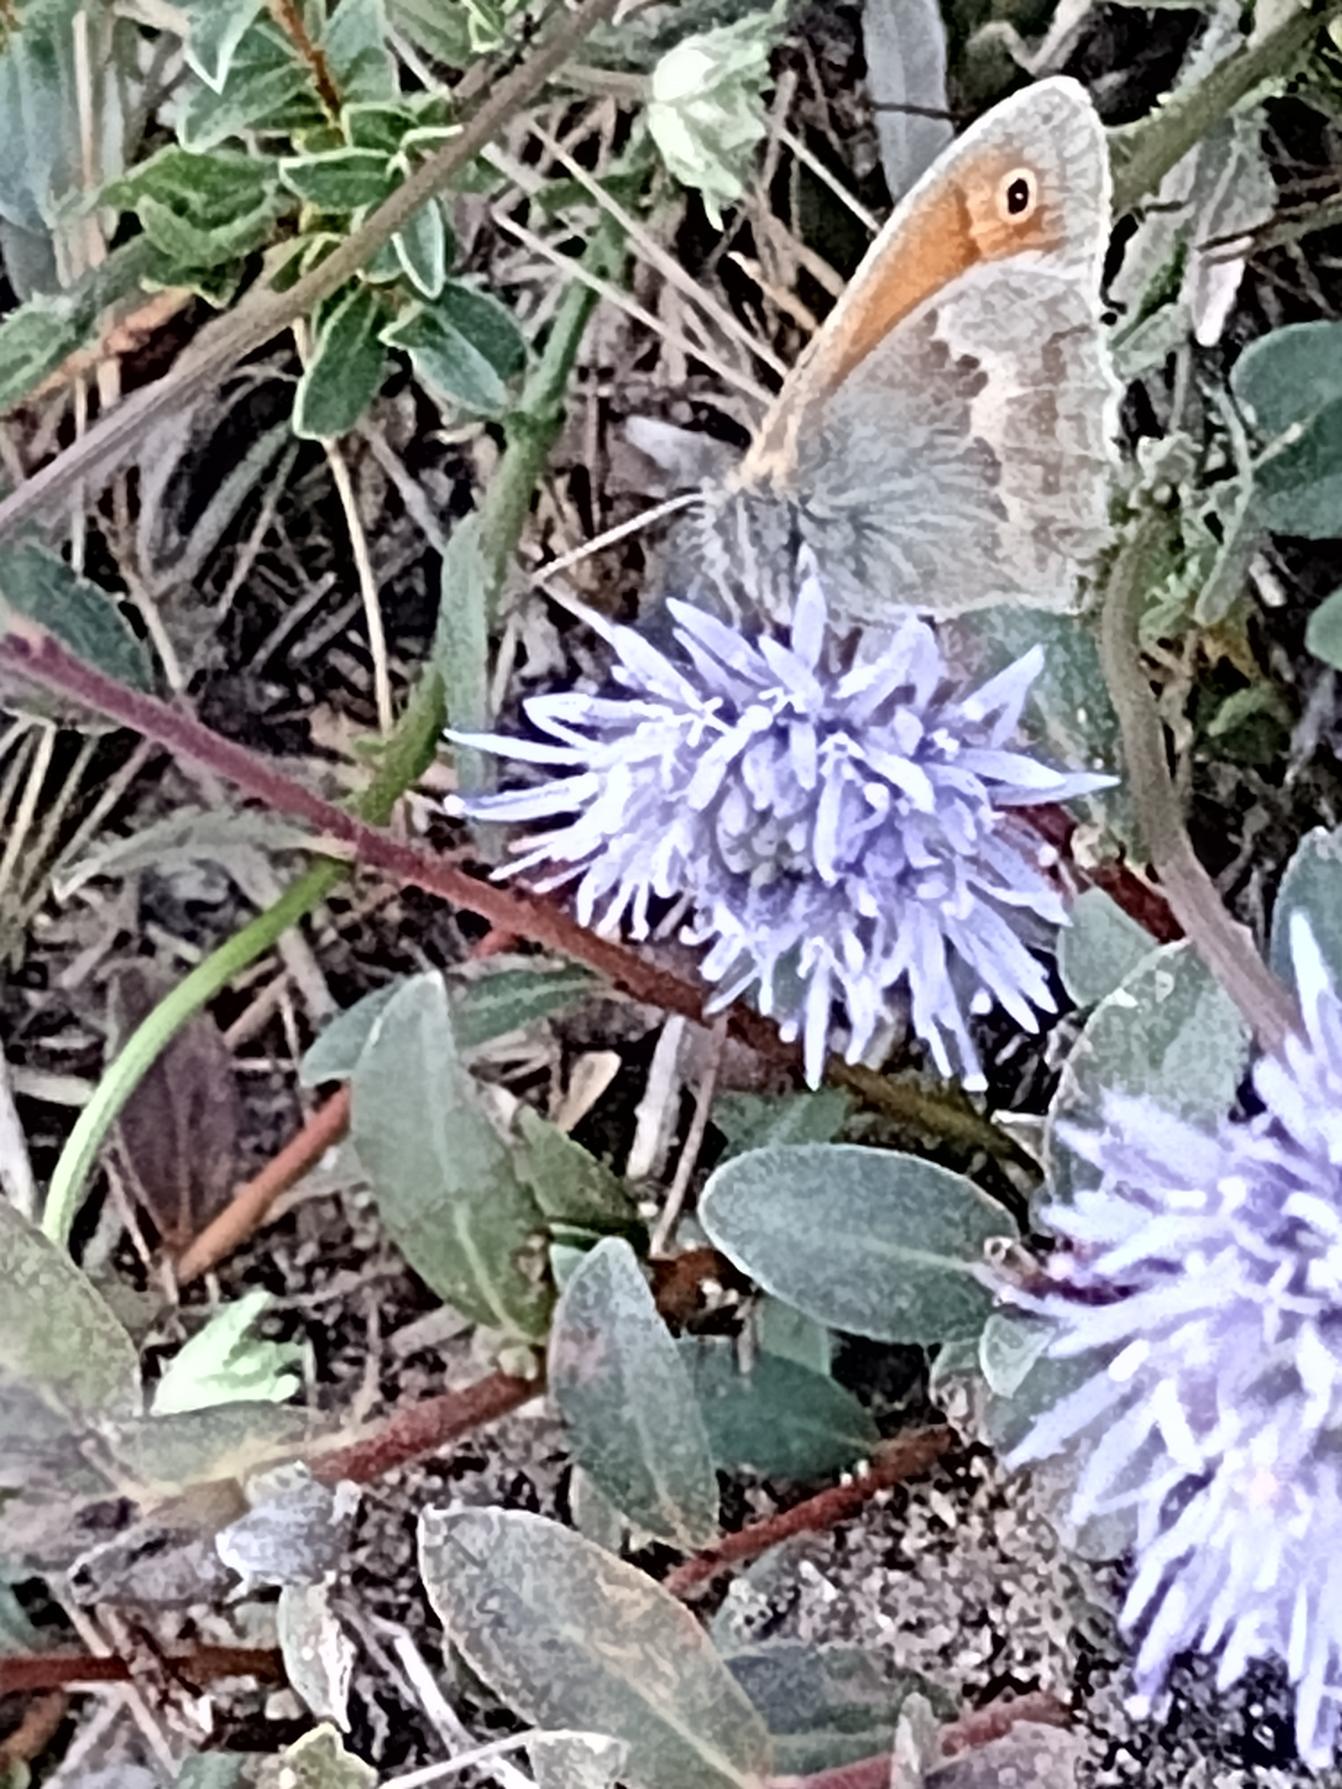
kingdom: Animalia
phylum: Arthropoda
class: Insecta
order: Lepidoptera
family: Nymphalidae
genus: Coenonympha
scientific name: Coenonympha pamphilus
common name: Okkergul randøje
